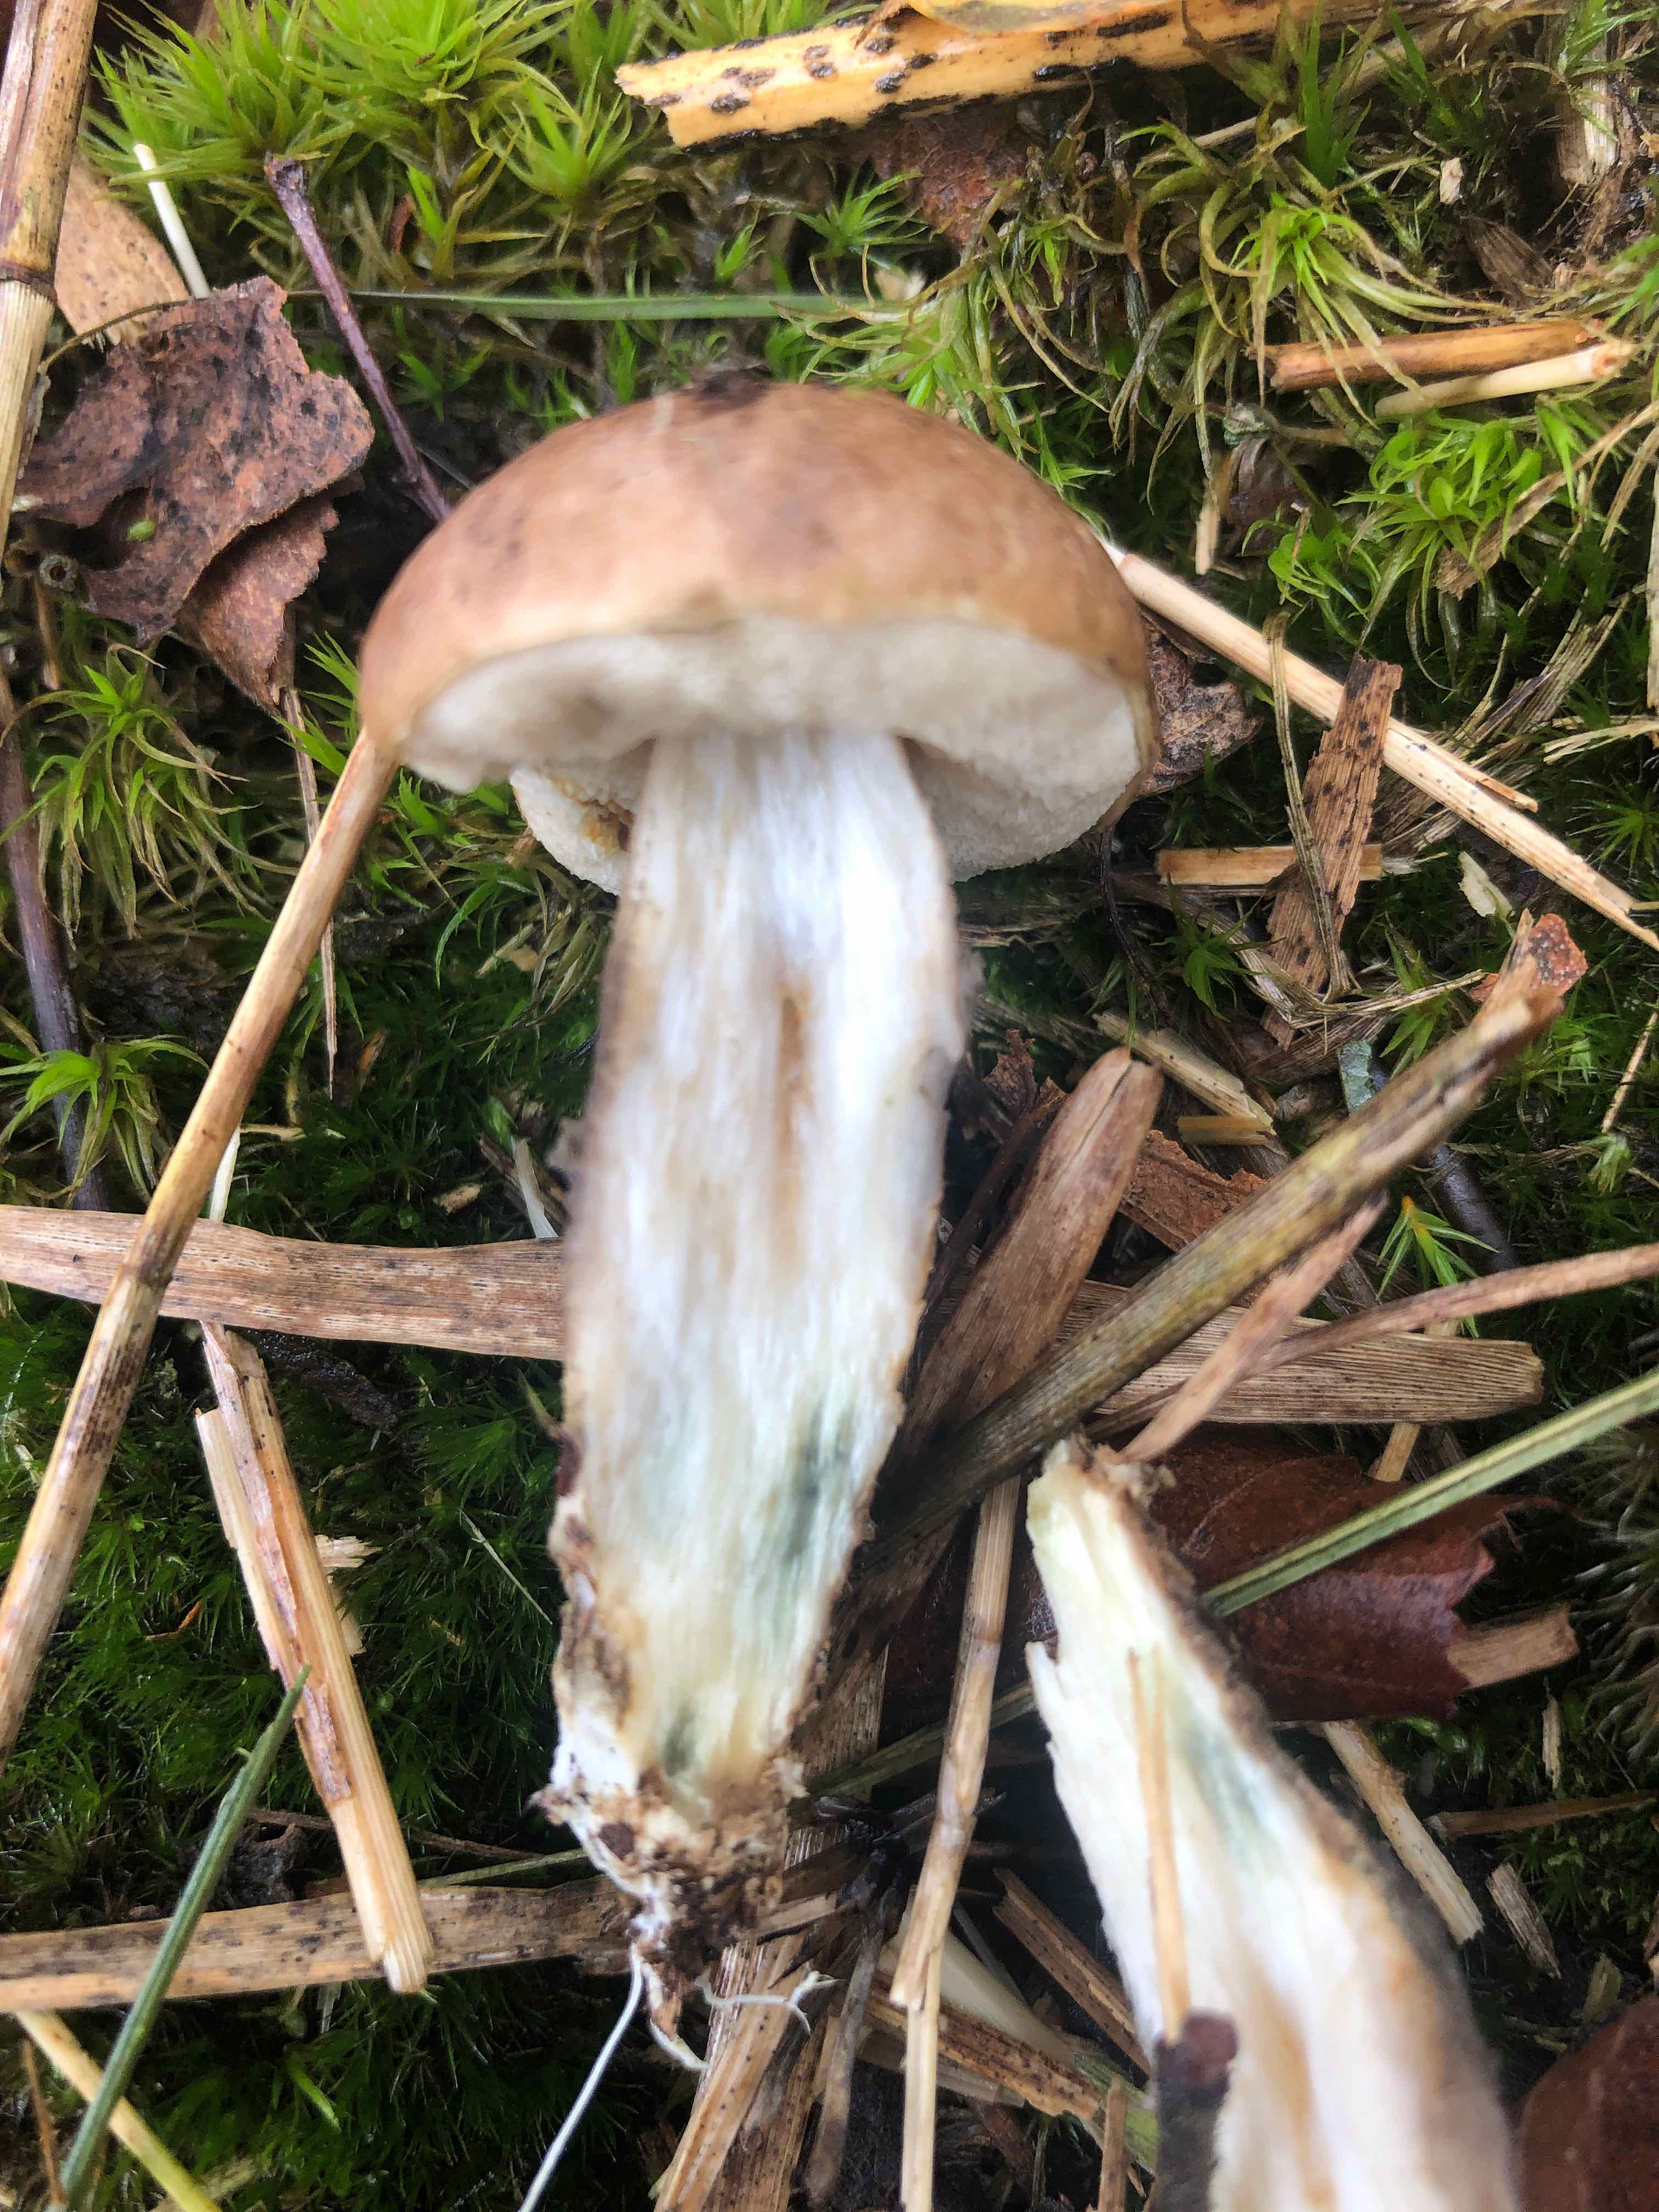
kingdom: Fungi
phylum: Basidiomycota
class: Agaricomycetes
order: Boletales
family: Boletaceae
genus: Leccinum
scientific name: Leccinum
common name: skælrørhat
